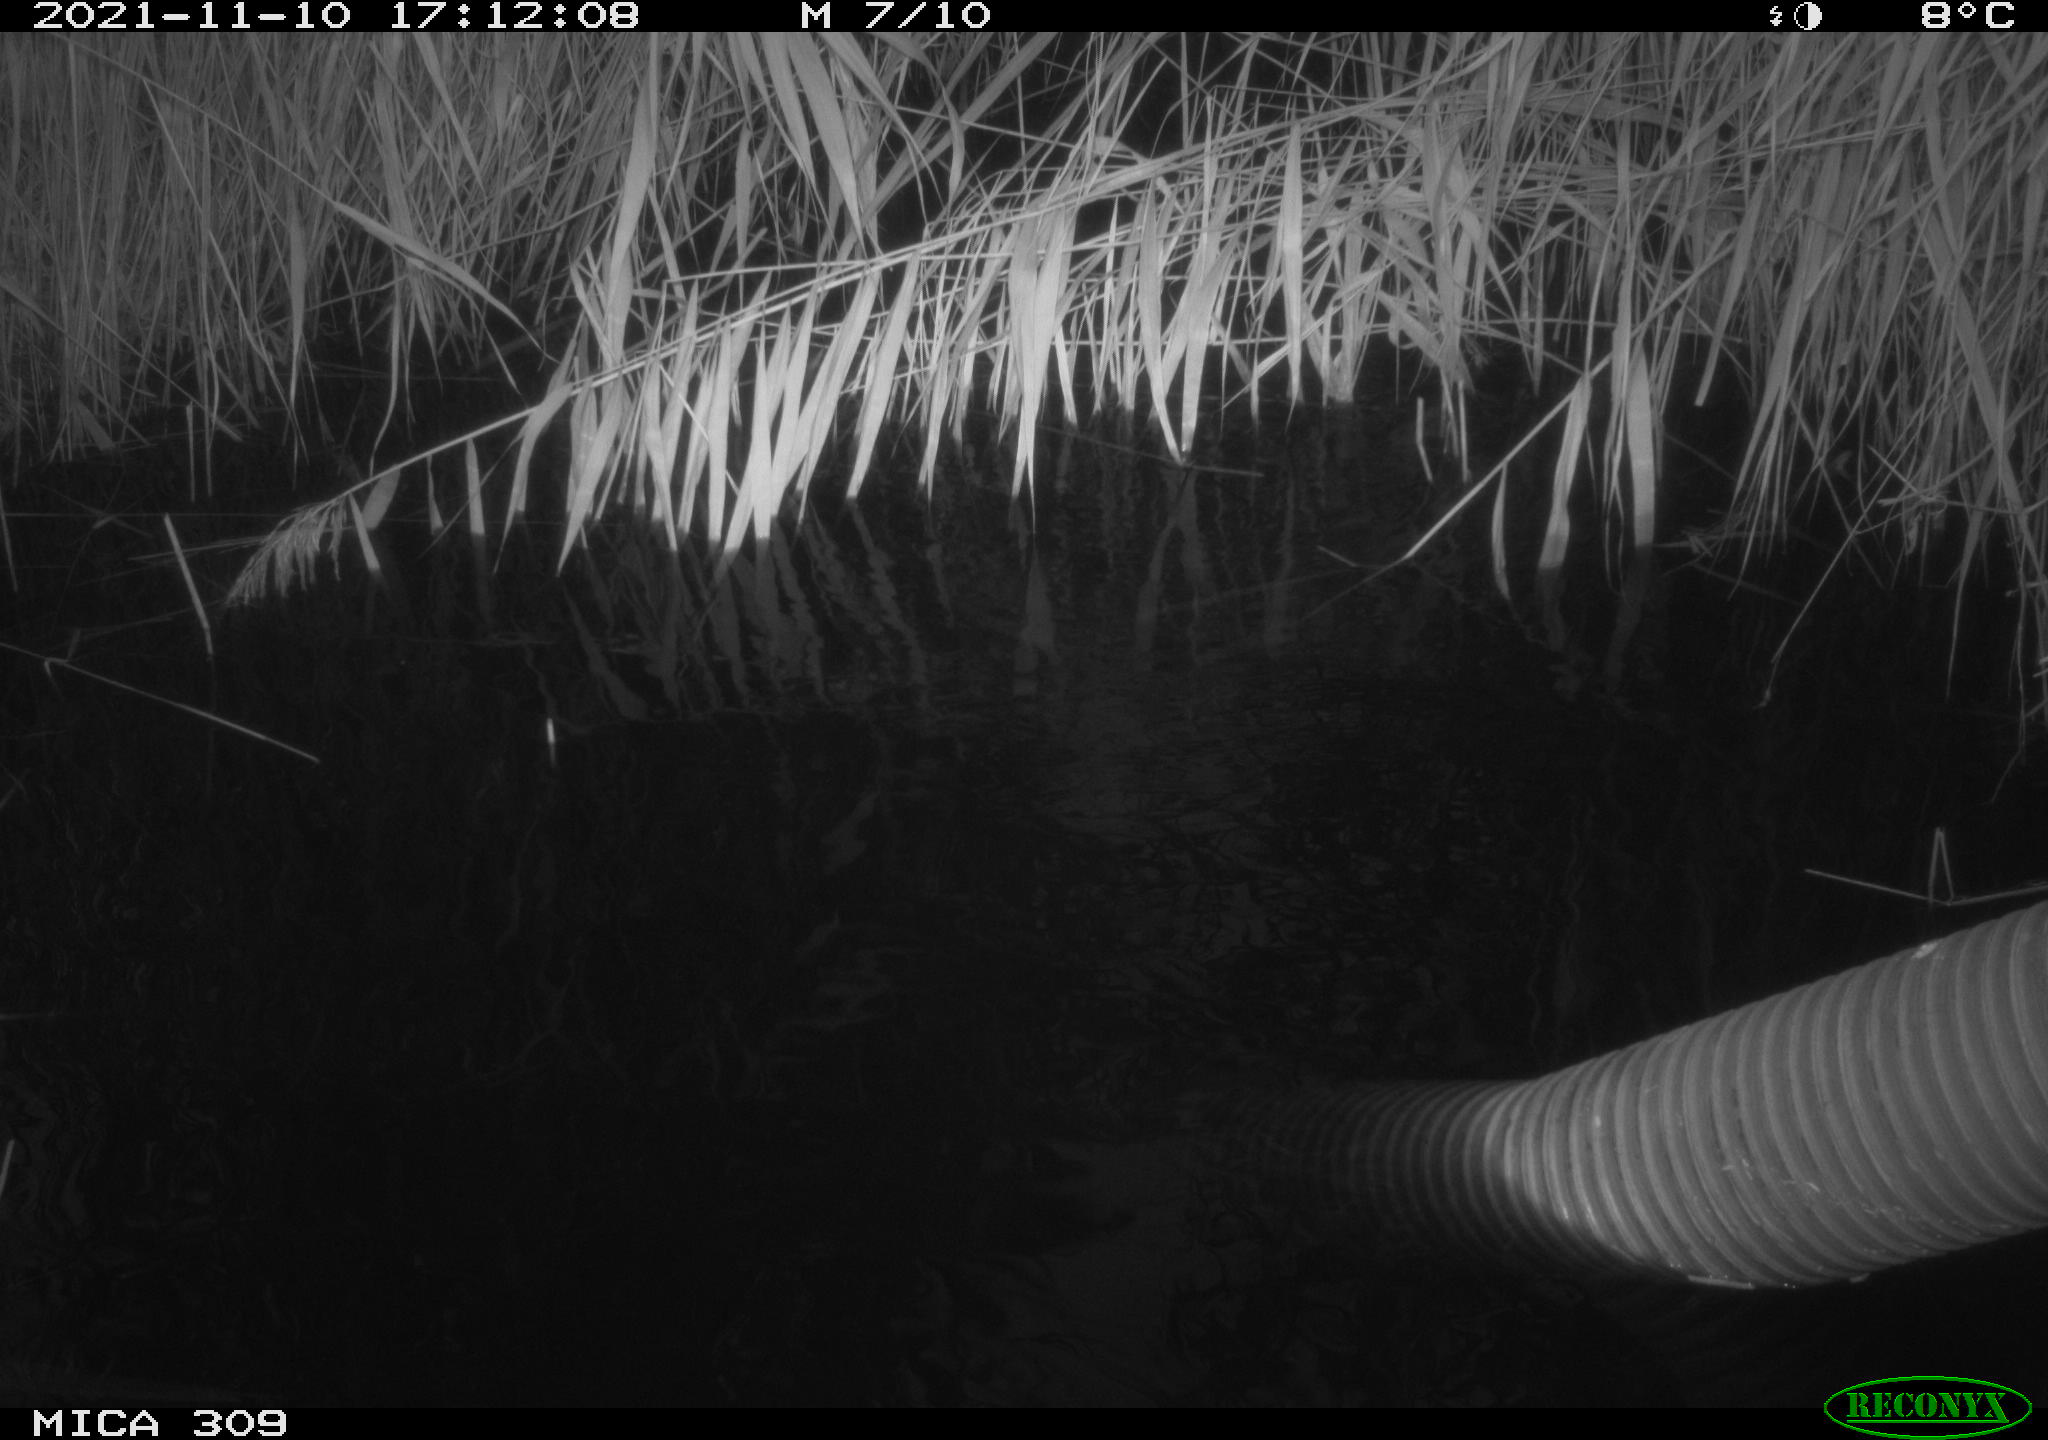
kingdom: Animalia
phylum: Chordata
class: Aves
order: Gruiformes
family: Rallidae
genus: Gallinula
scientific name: Gallinula chloropus
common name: Common moorhen
